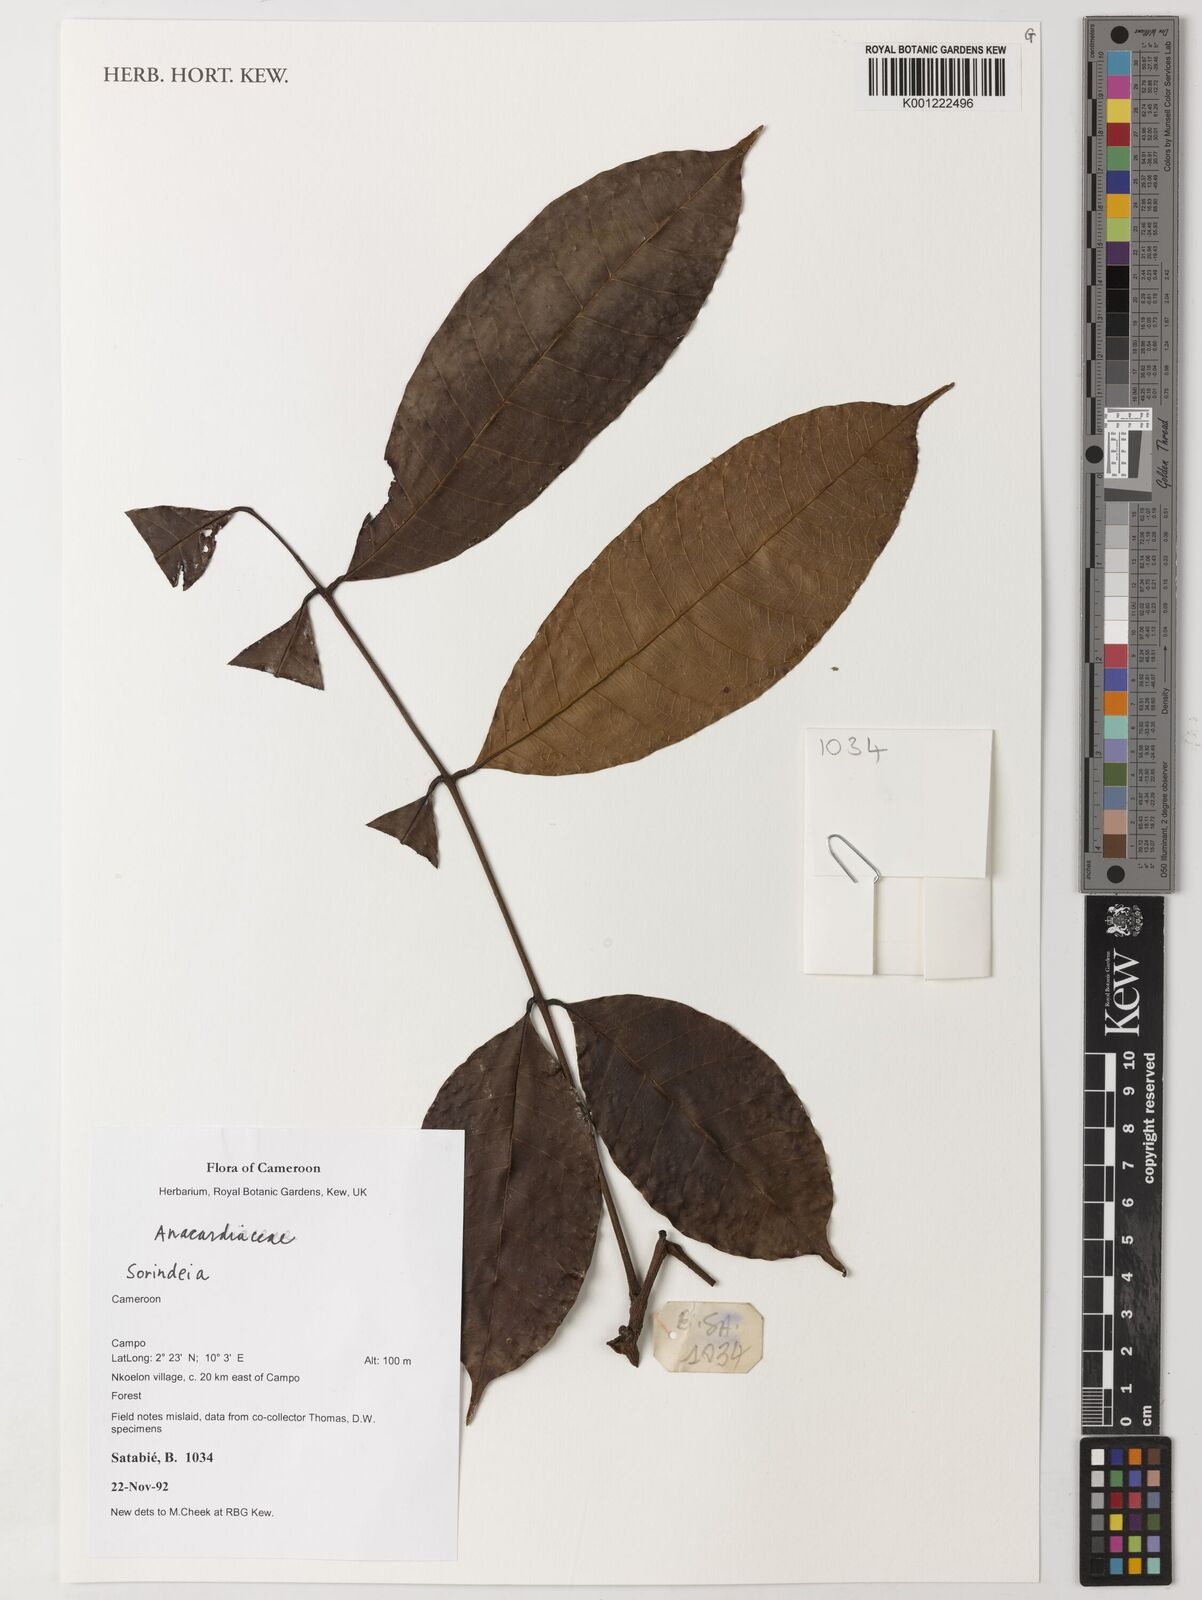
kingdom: Plantae
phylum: Tracheophyta
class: Magnoliopsida
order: Sapindales
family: Anacardiaceae
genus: Sorindeia
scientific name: Sorindeia
